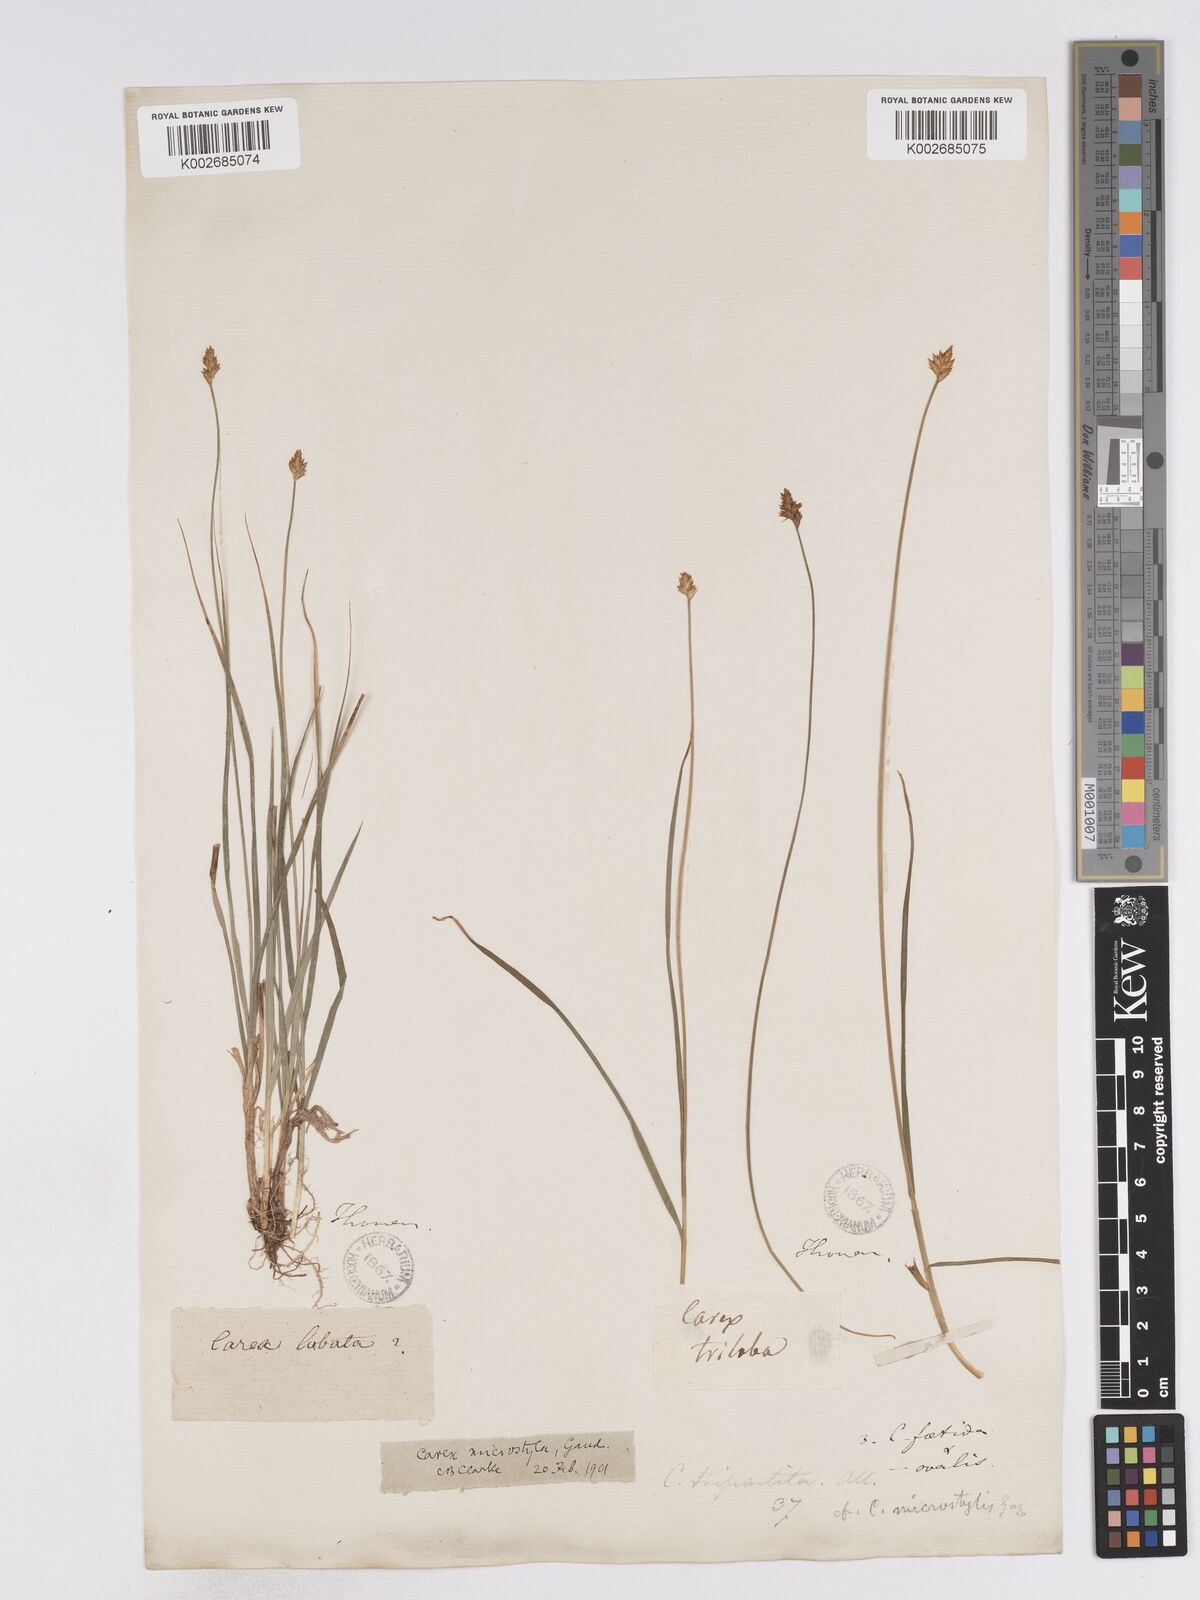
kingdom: Plantae
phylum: Tracheophyta
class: Liliopsida
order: Poales
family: Cyperaceae
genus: Carex
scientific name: Carex microstyla
